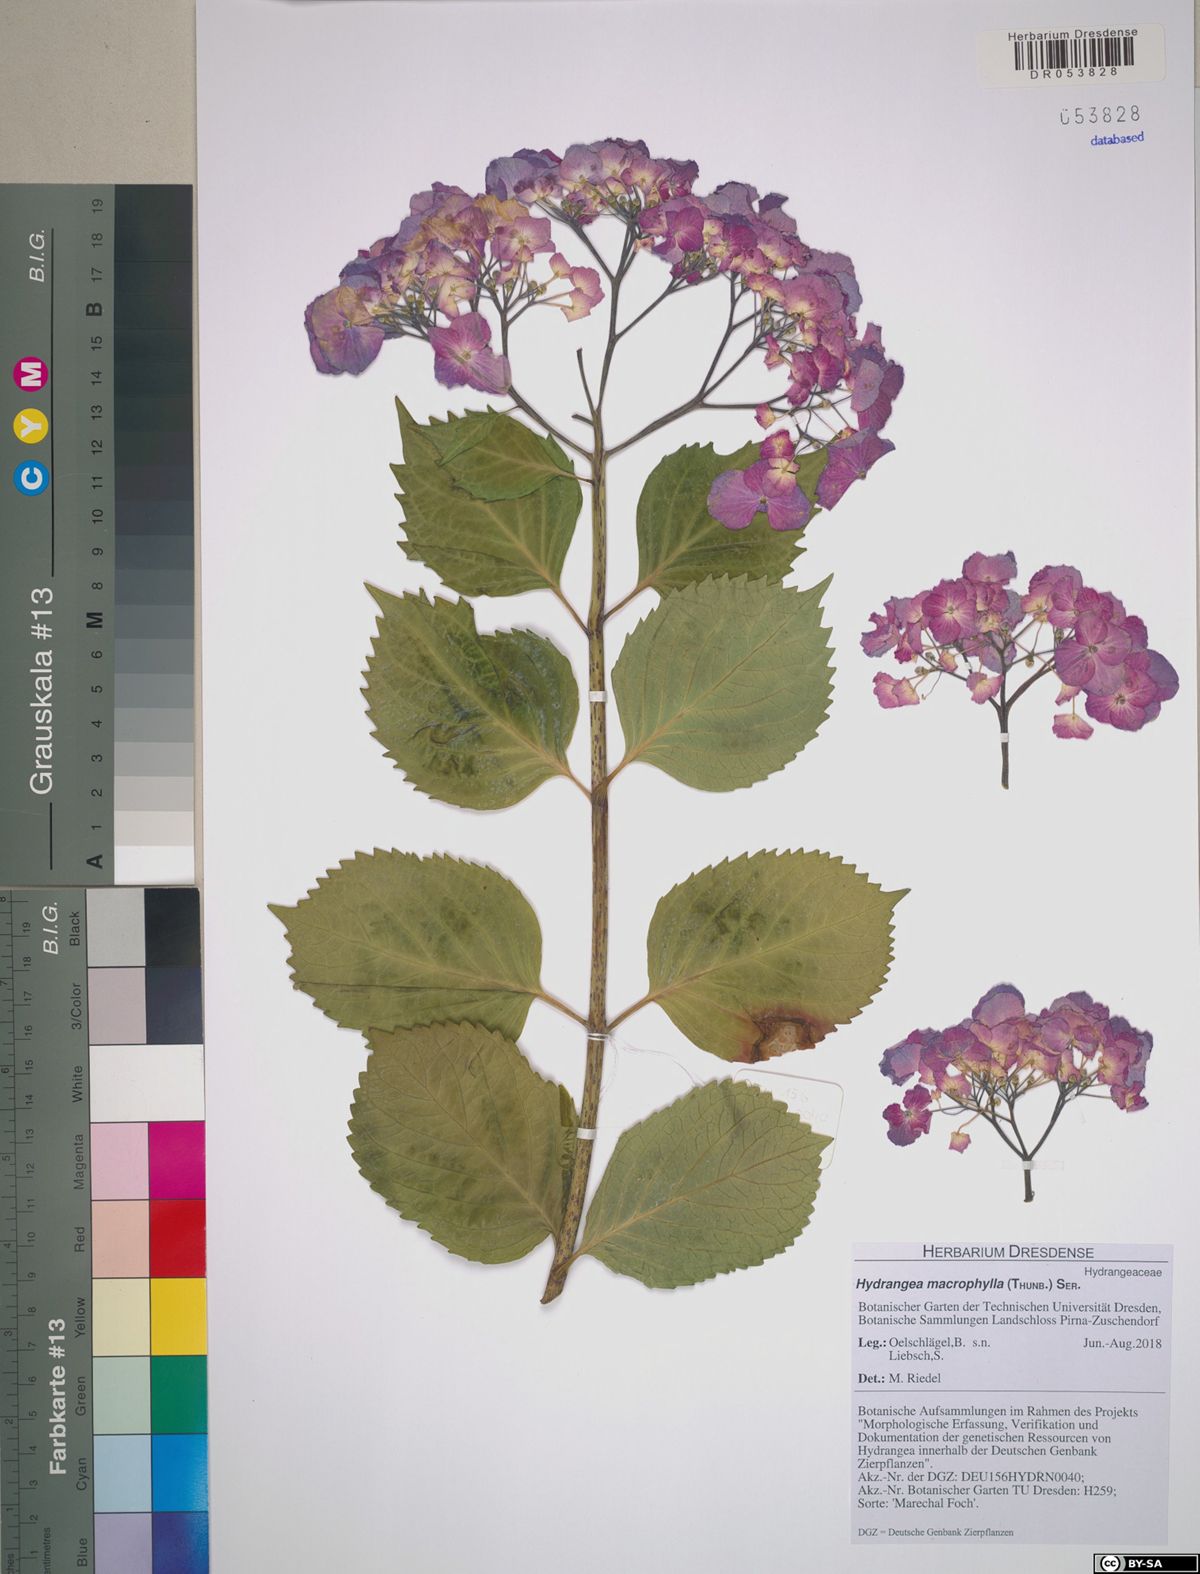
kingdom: Plantae
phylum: Tracheophyta
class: Magnoliopsida
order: Cornales
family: Hydrangeaceae
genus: Hydrangea
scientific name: Hydrangea macrophylla
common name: Hydrangea
